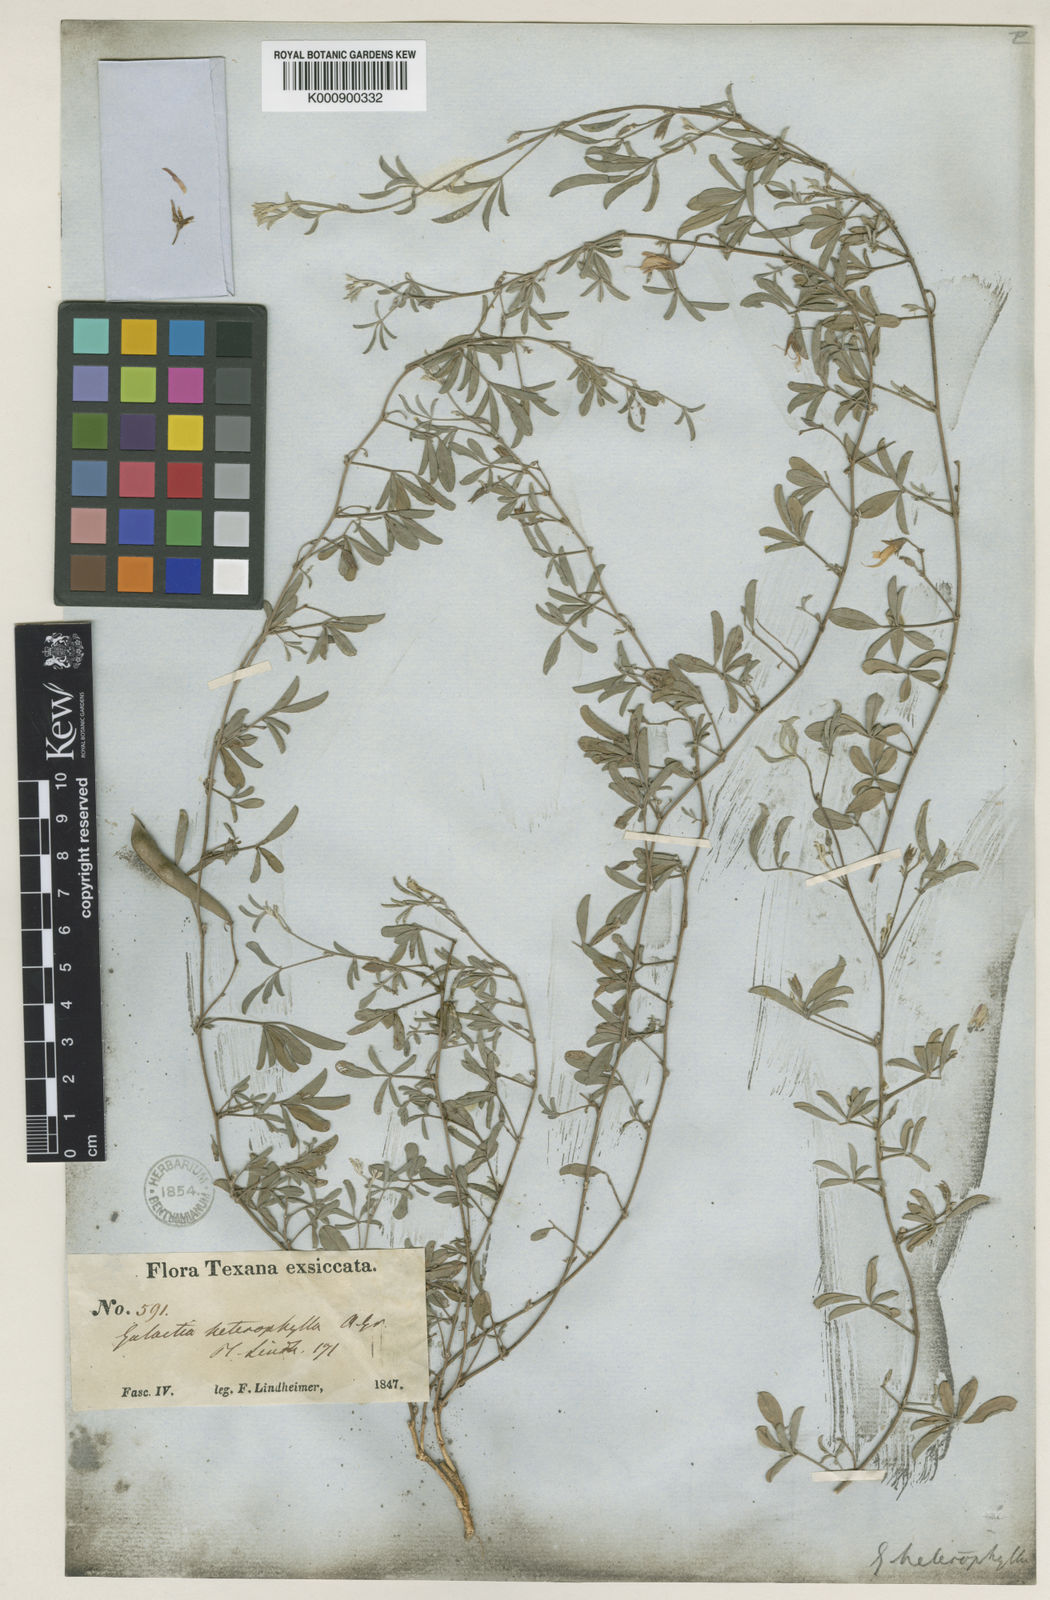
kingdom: Plantae
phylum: Tracheophyta
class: Magnoliopsida
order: Fabales
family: Fabaceae
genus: Galactia
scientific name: Galactia heterophylla
